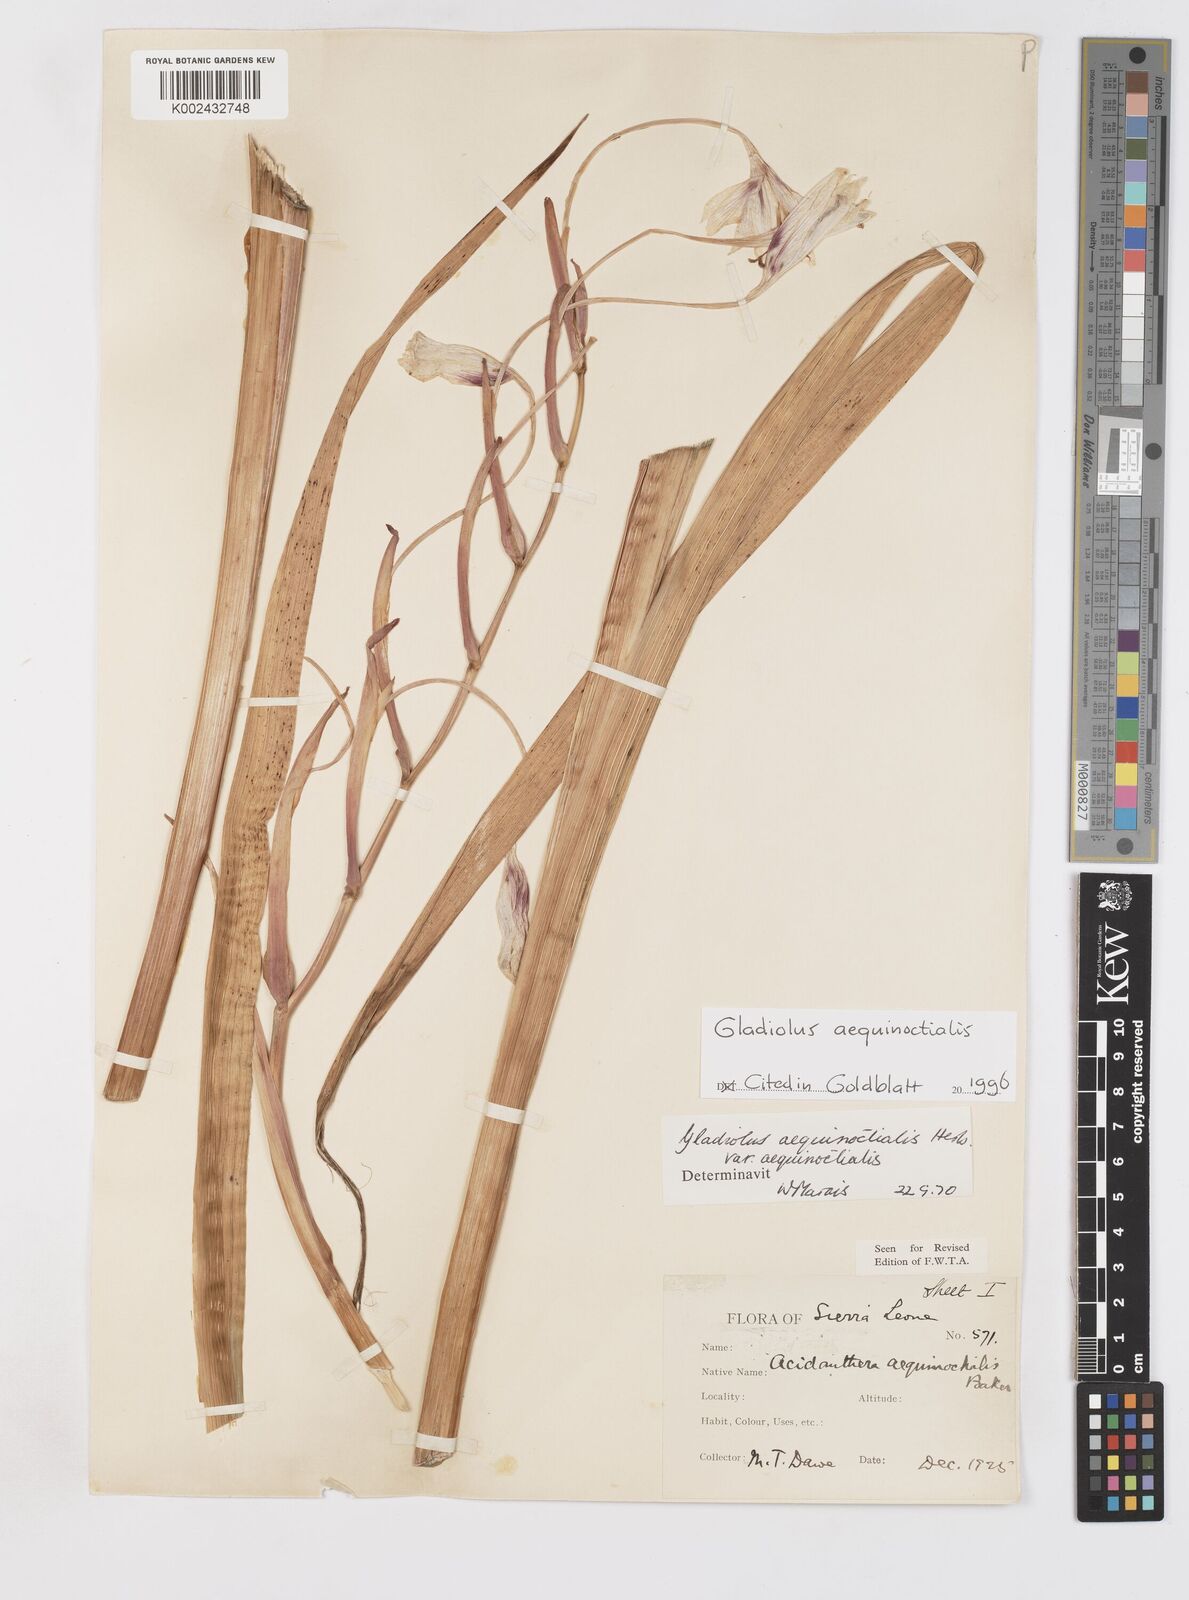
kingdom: Plantae
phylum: Tracheophyta
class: Liliopsida
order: Asparagales
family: Iridaceae
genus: Gladiolus
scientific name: Gladiolus aequinoctialis
